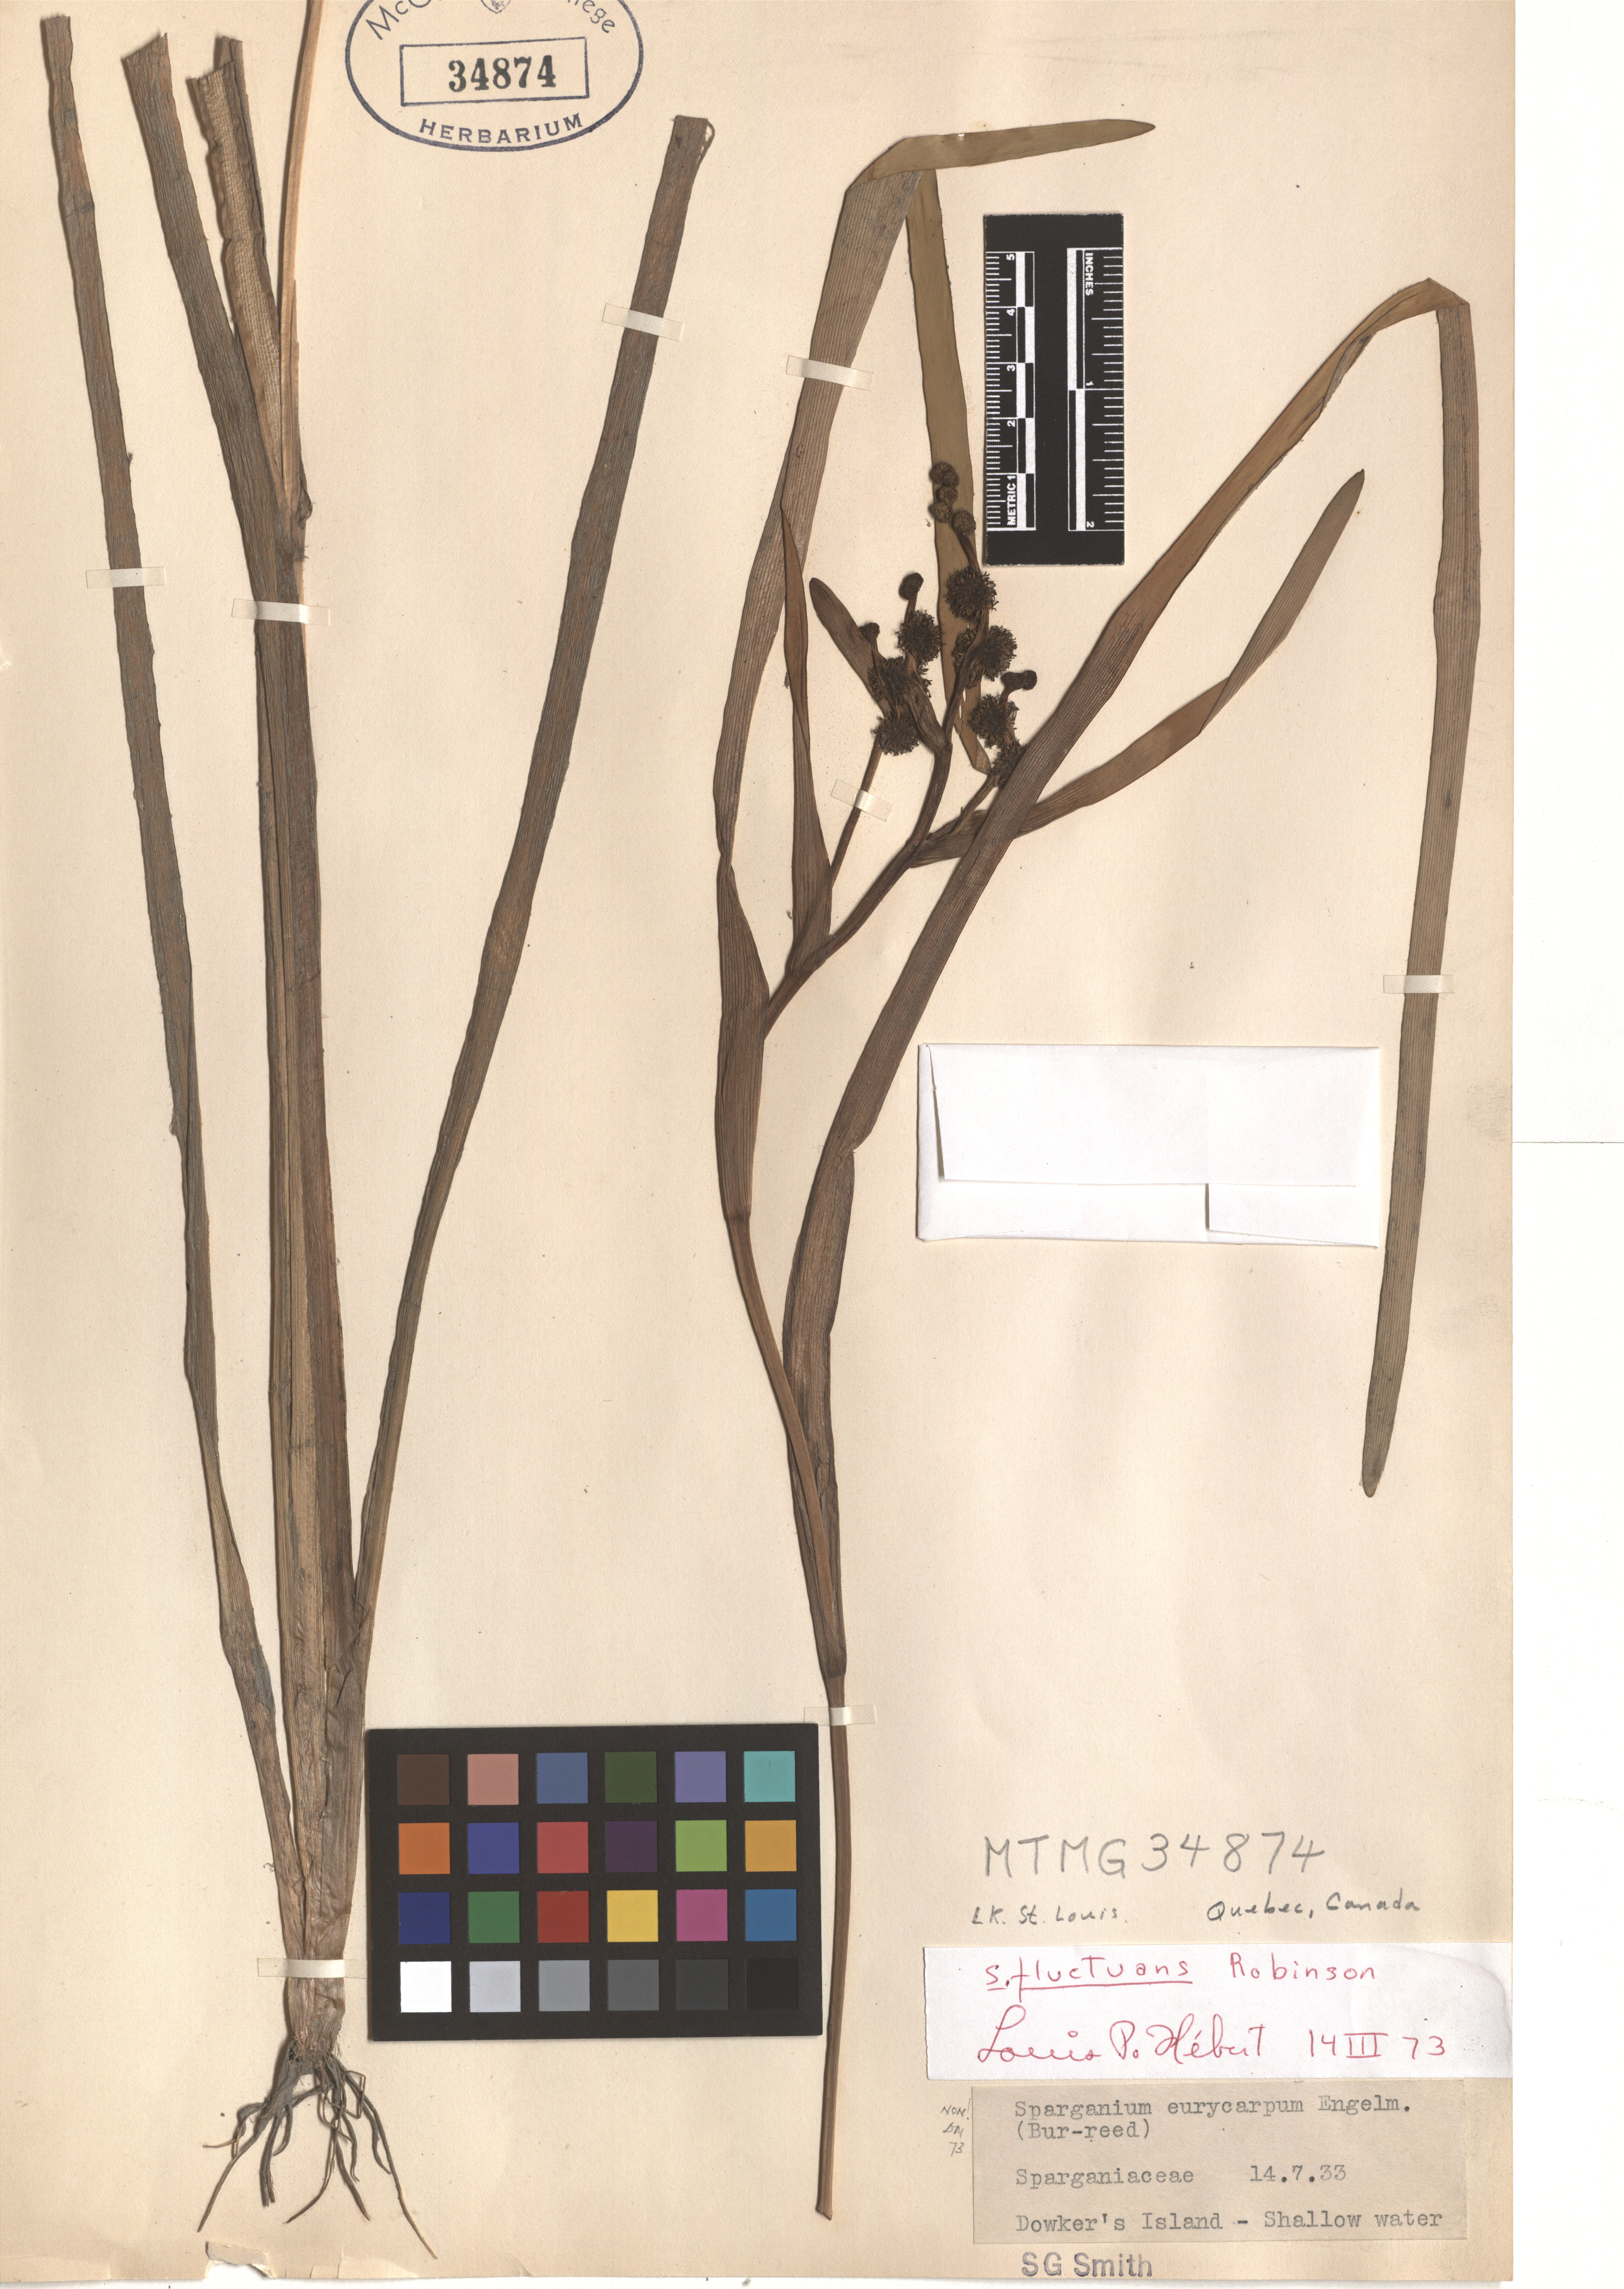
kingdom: Plantae
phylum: Tracheophyta
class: Liliopsida
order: Poales
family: Typhaceae
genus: Sparganium
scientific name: Sparganium fluctuans
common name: Floating burreed
